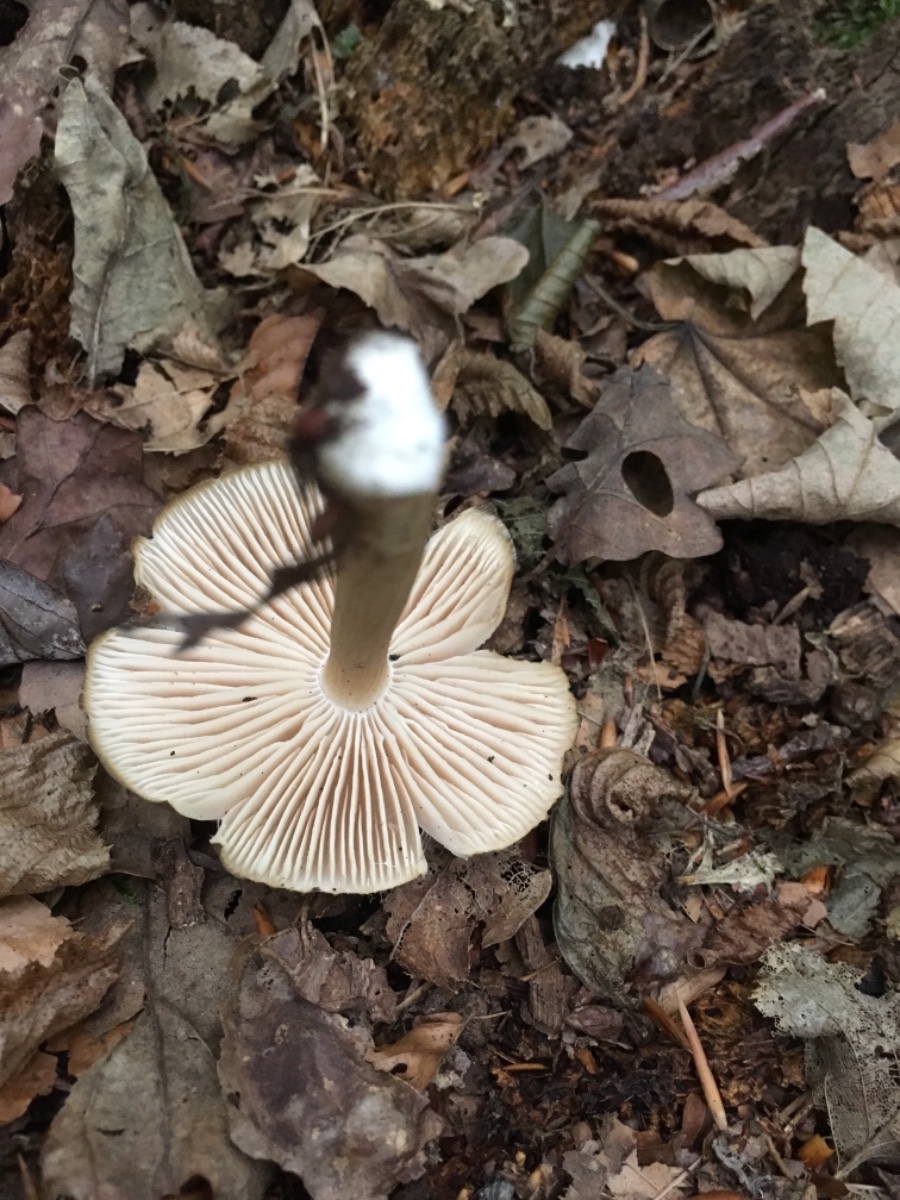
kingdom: Fungi
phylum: Basidiomycota
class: Agaricomycetes
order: Agaricales
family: Tricholomataceae
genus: Megacollybia
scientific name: Megacollybia platyphylla
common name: bredbladet væbnerhat
